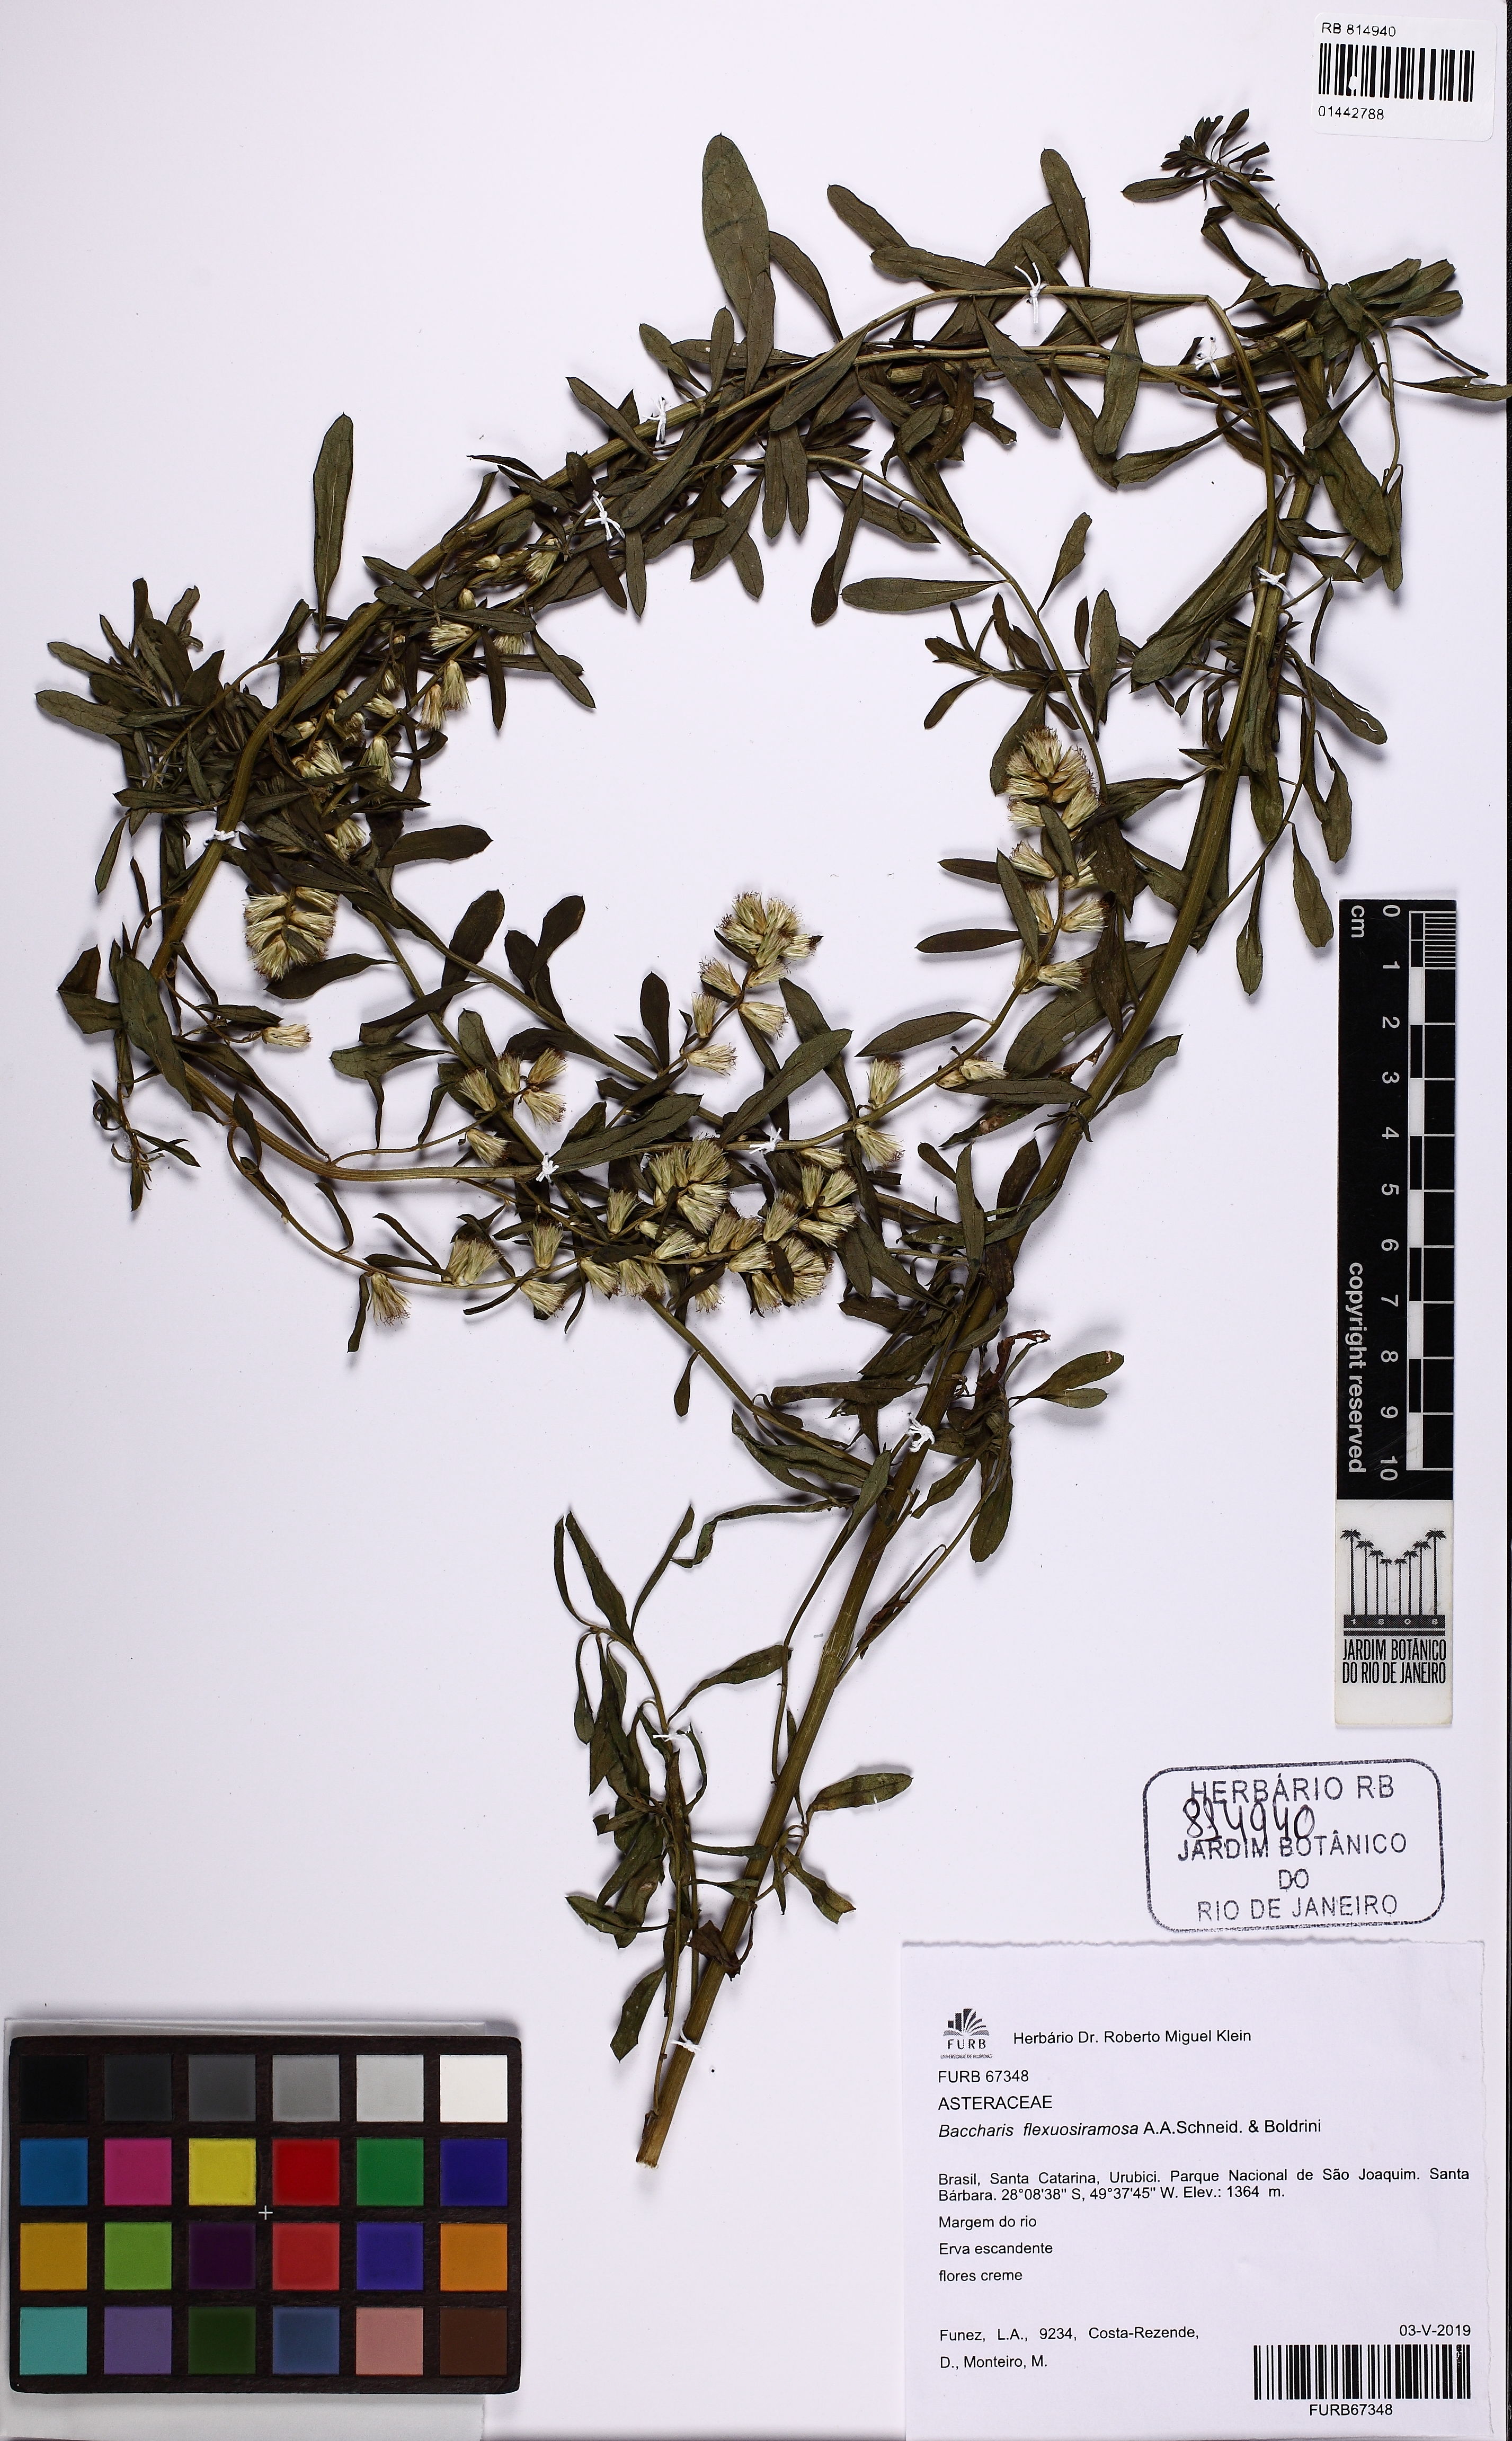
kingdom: Plantae
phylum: Tracheophyta
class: Magnoliopsida
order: Asterales
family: Asteraceae
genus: Baccharis
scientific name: Baccharis flexuosiramosa
